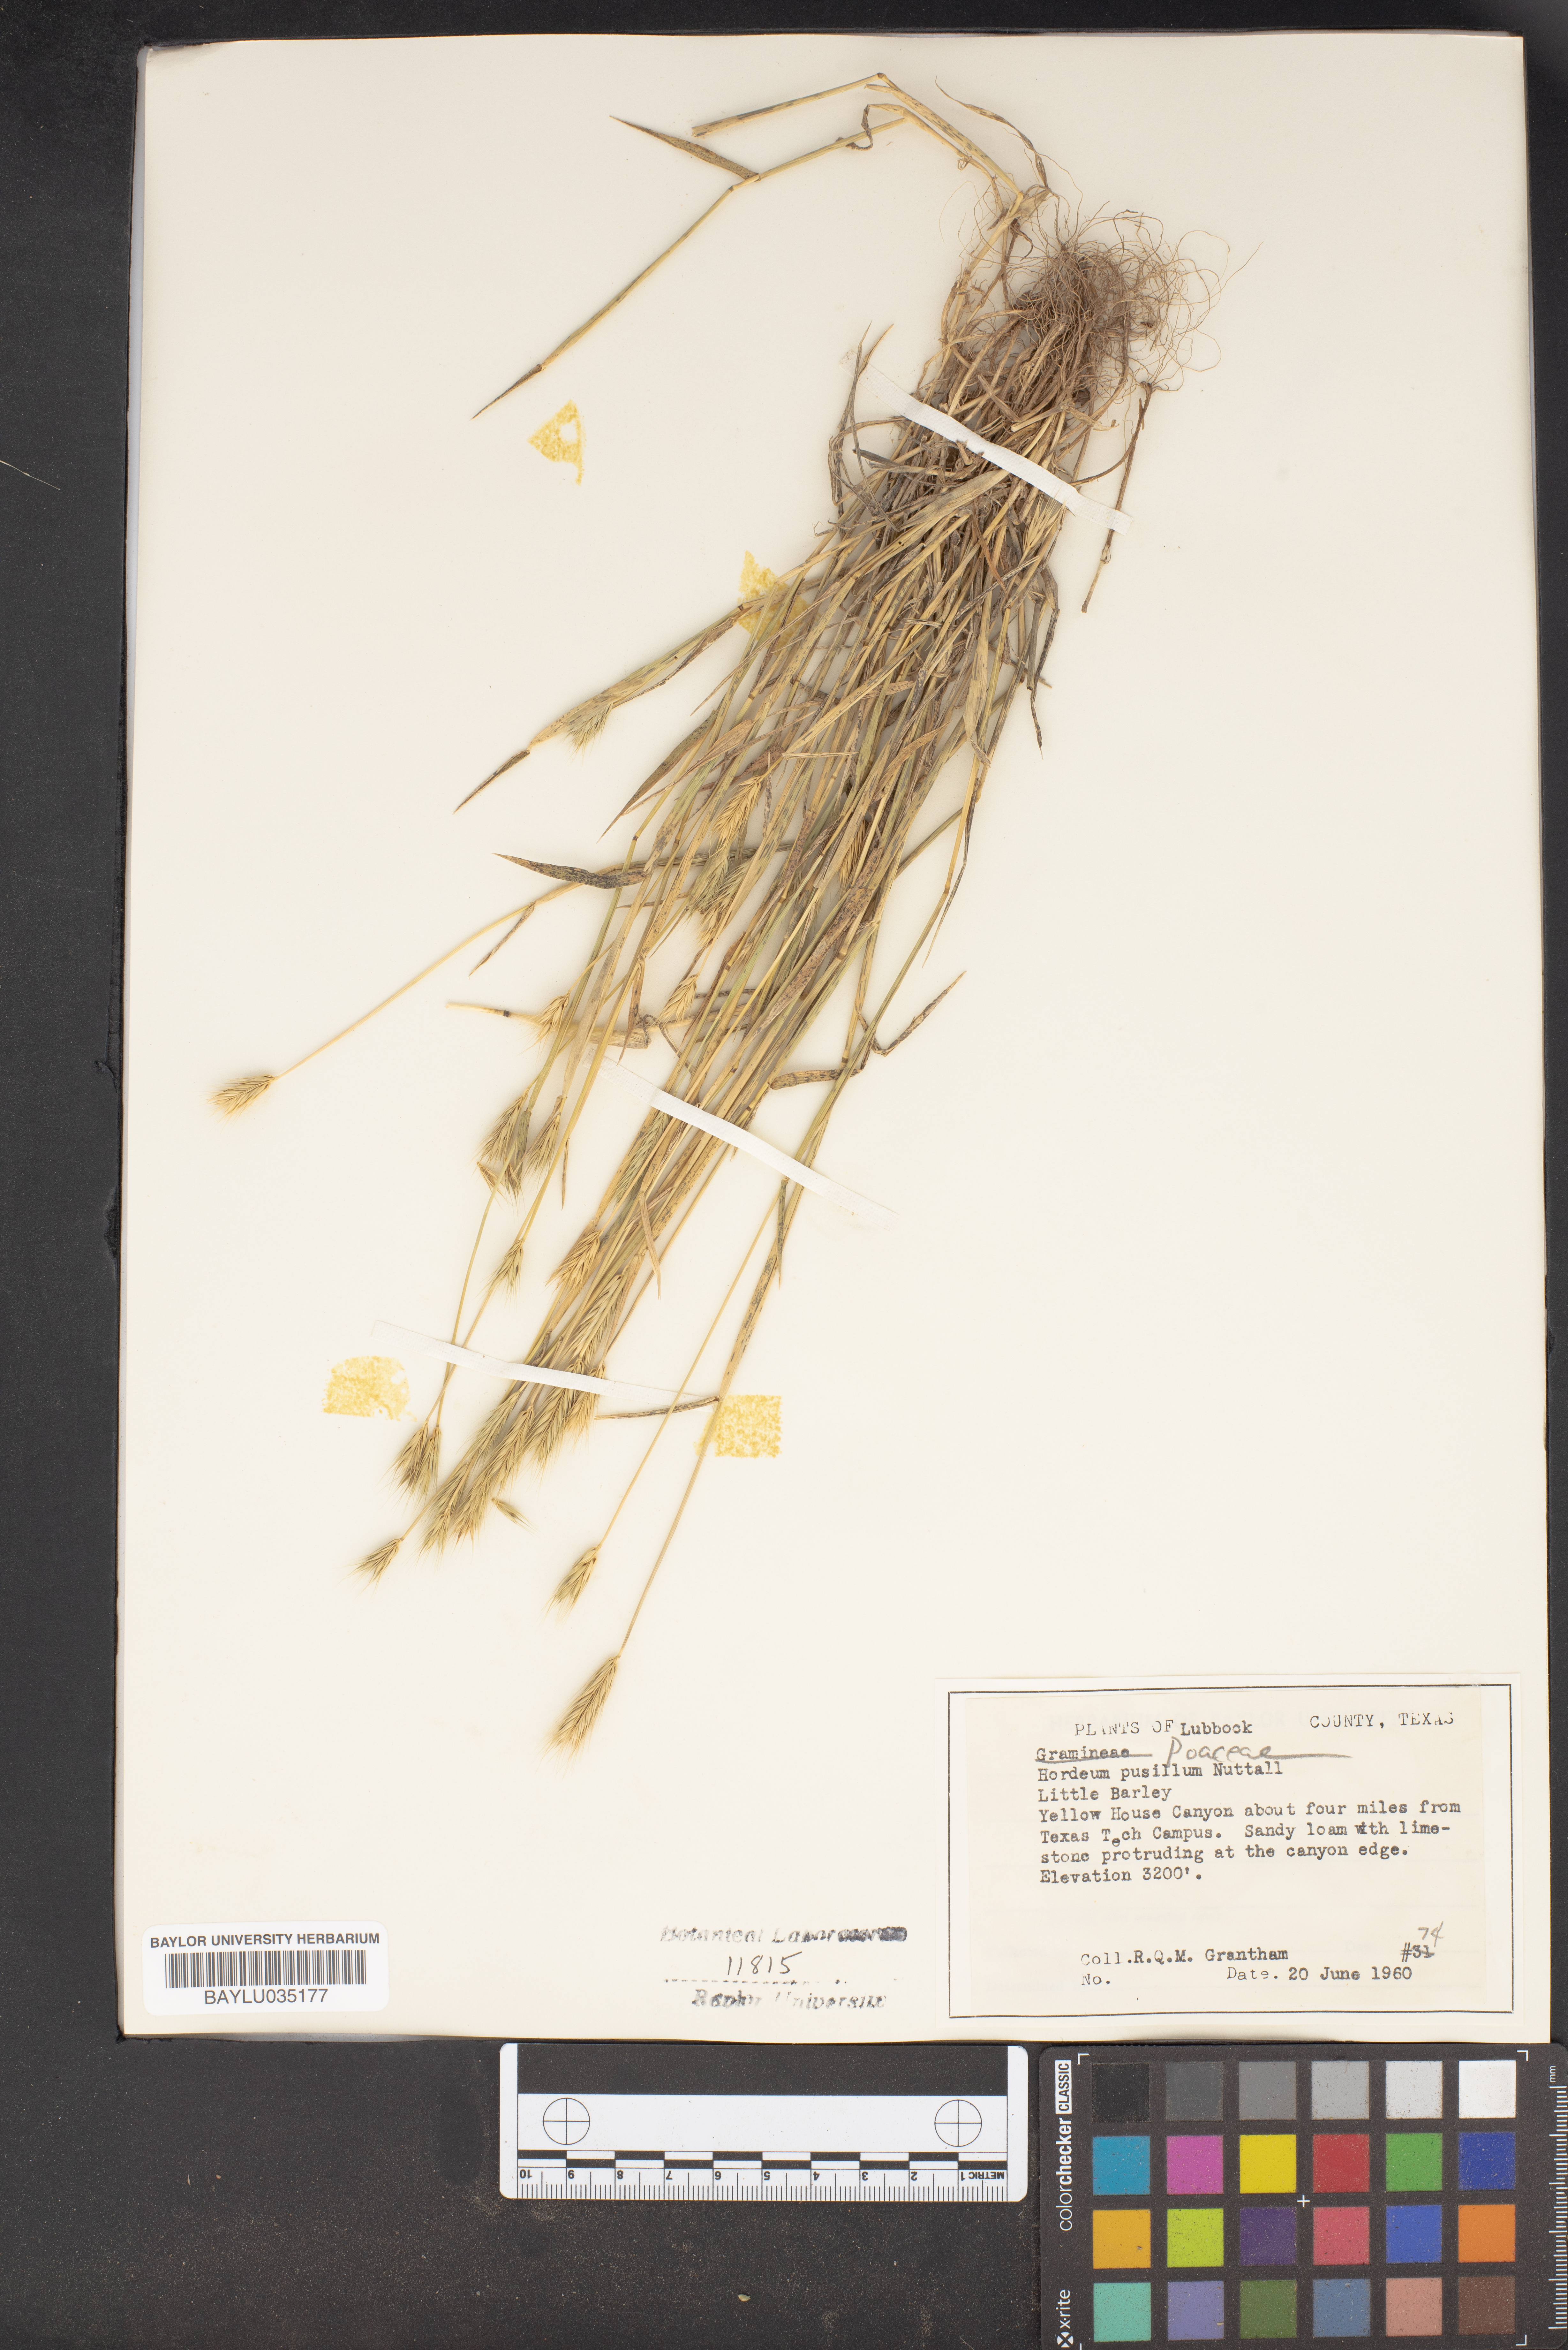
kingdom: Plantae
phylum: Tracheophyta
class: Liliopsida
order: Poales
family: Poaceae
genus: Hordeum
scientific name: Hordeum pusillum
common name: Little barley
